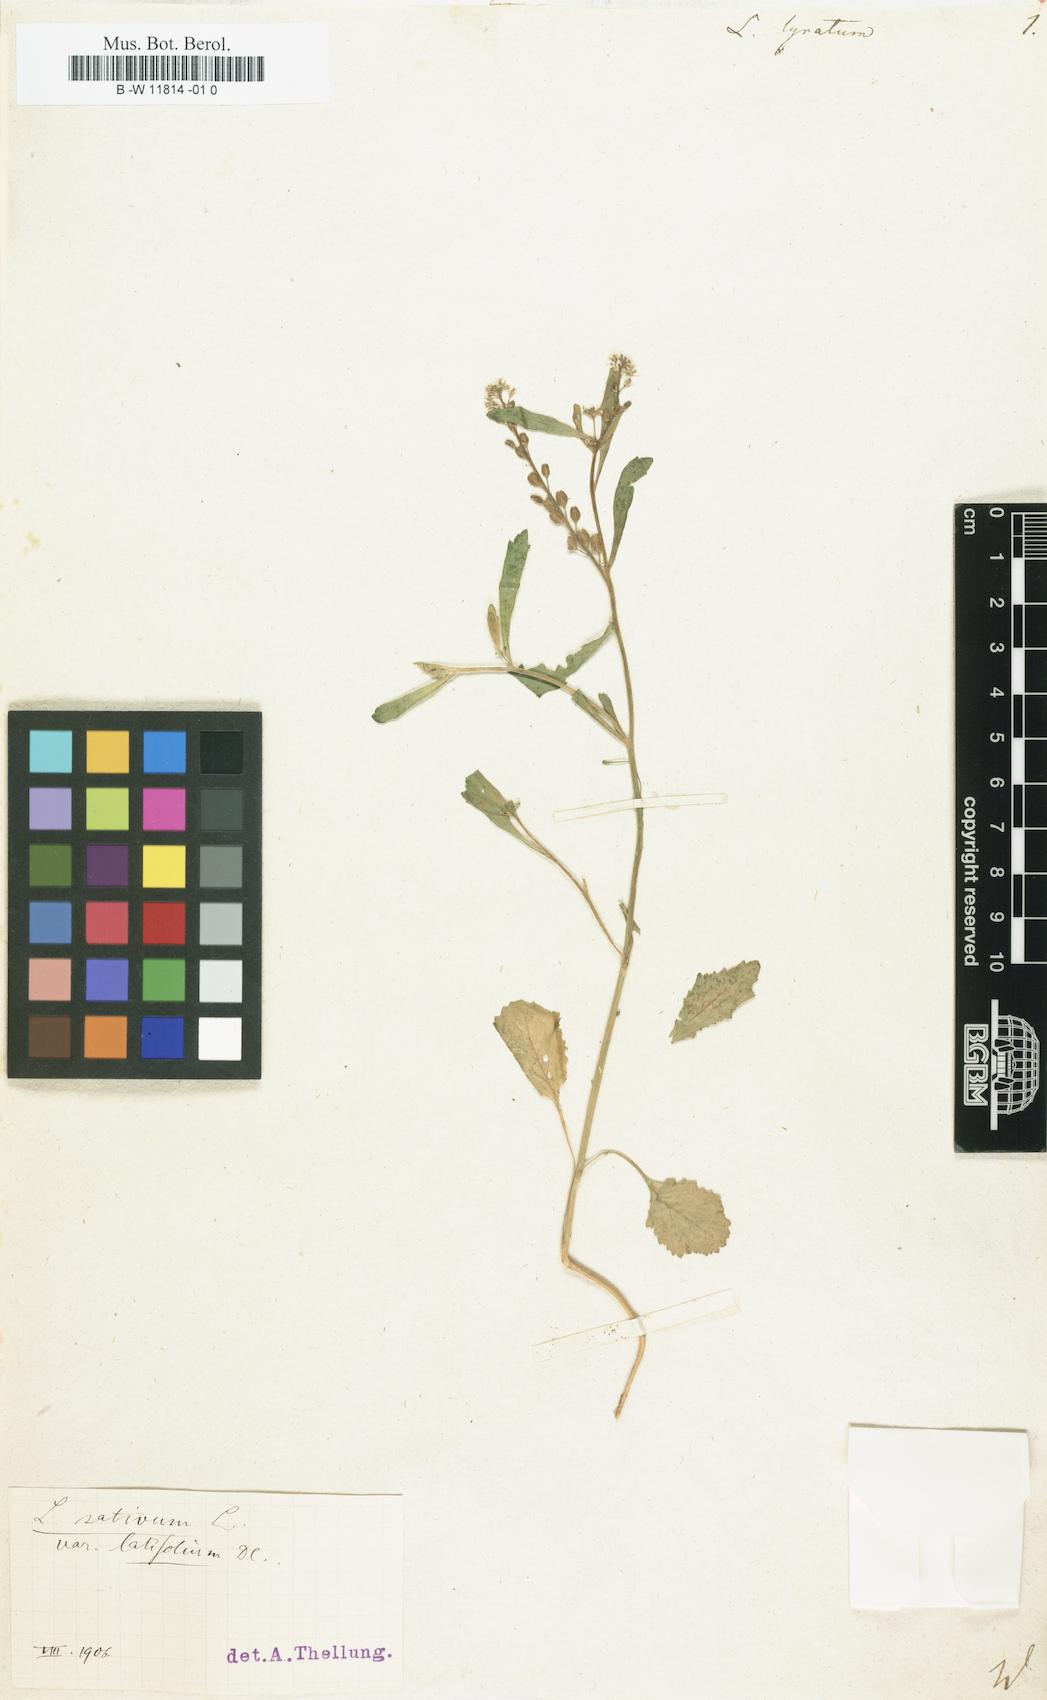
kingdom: Plantae
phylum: Tracheophyta
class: Magnoliopsida
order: Brassicales
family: Brassicaceae
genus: Lepidium
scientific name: Lepidium lyratum
